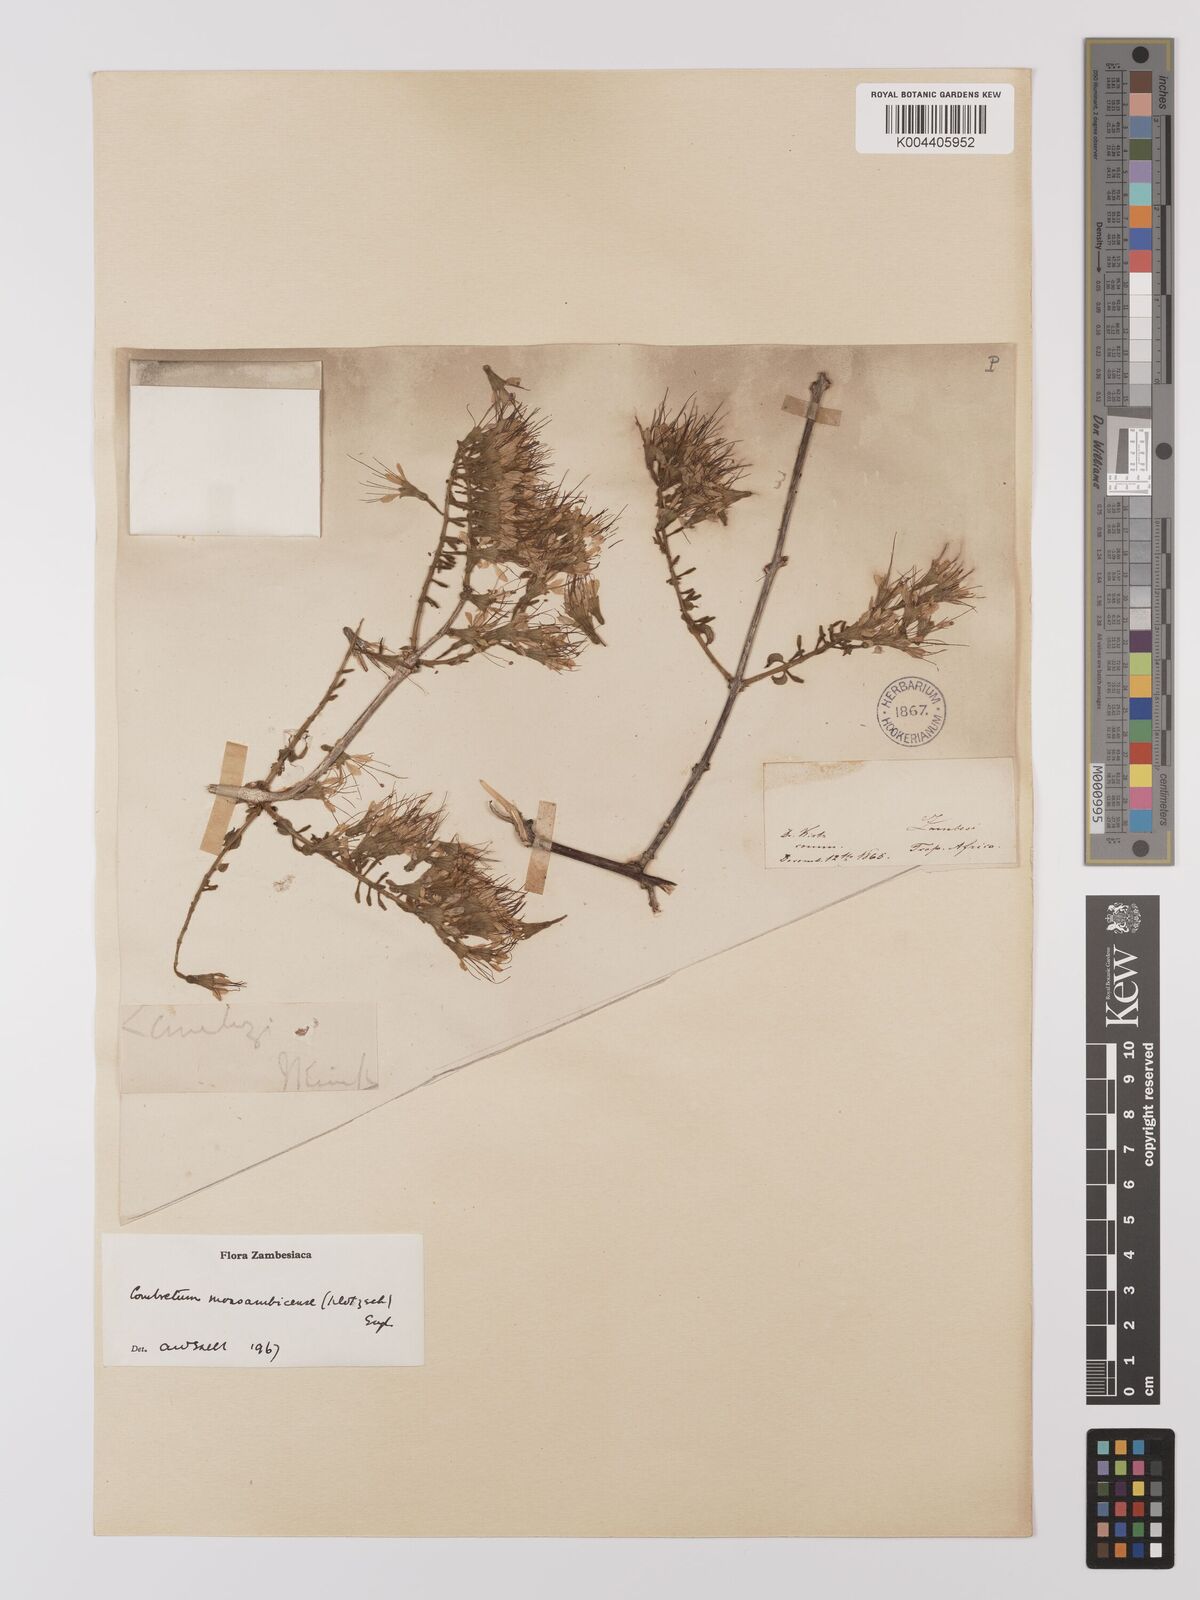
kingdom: Plantae
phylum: Tracheophyta
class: Magnoliopsida
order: Myrtales
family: Combretaceae
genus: Combretum
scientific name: Combretum mossambicense
